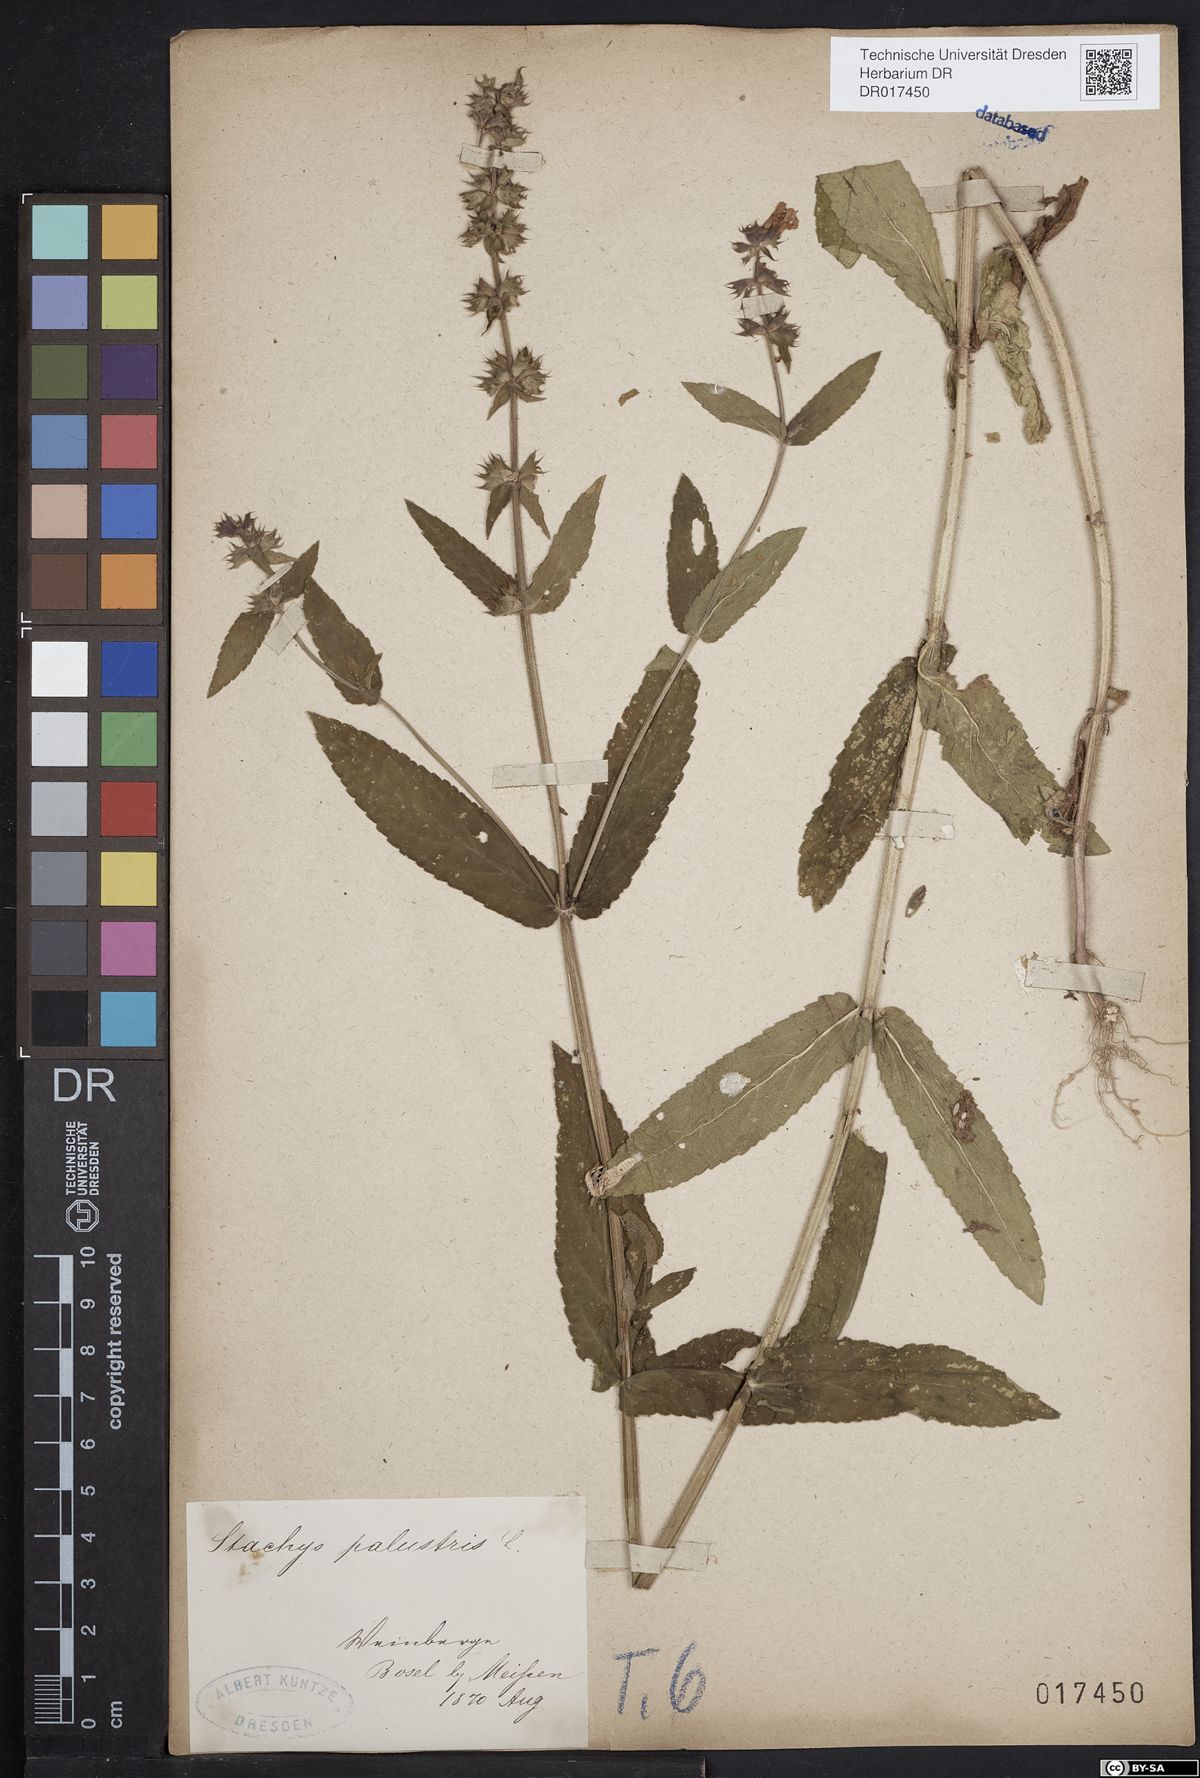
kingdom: Plantae
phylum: Tracheophyta
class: Magnoliopsida
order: Lamiales
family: Lamiaceae
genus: Stachys
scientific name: Stachys palustris
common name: Marsh woundwort
